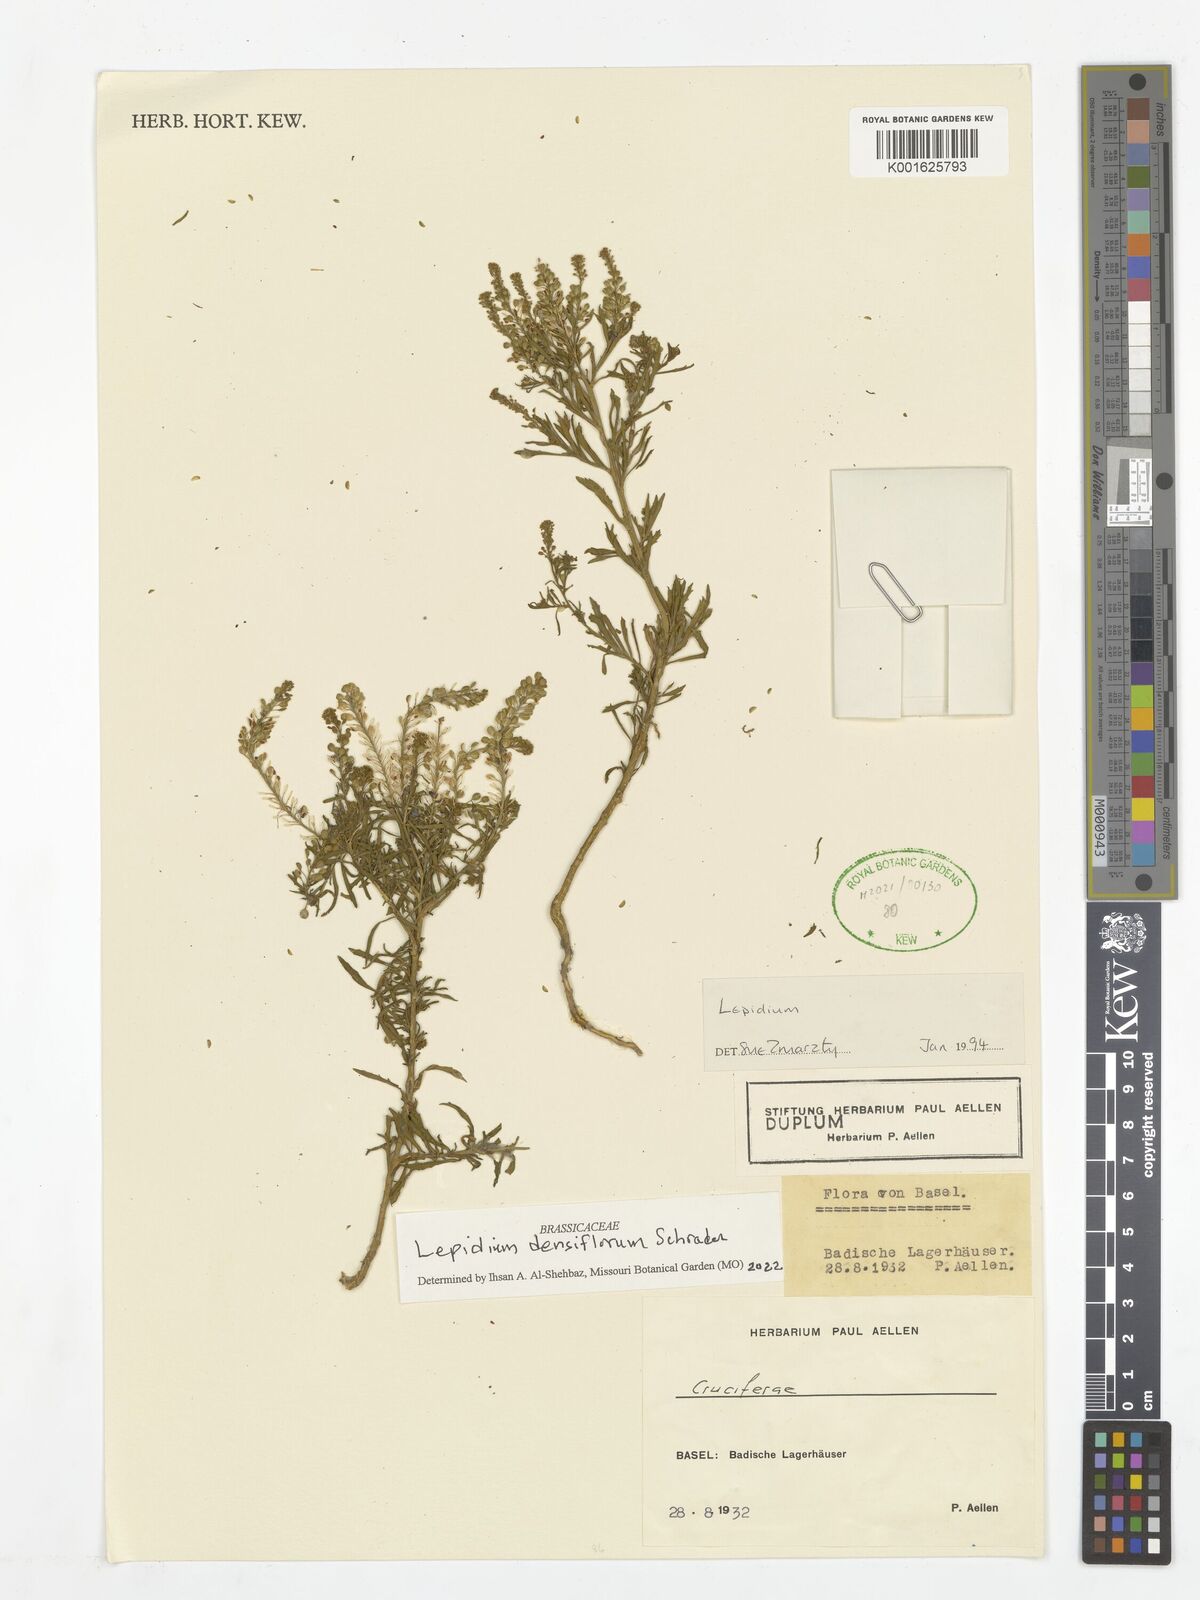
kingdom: Plantae
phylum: Tracheophyta
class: Magnoliopsida
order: Brassicales
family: Brassicaceae
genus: Lepidium
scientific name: Lepidium densiflorum
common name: Miner's pepperwort
